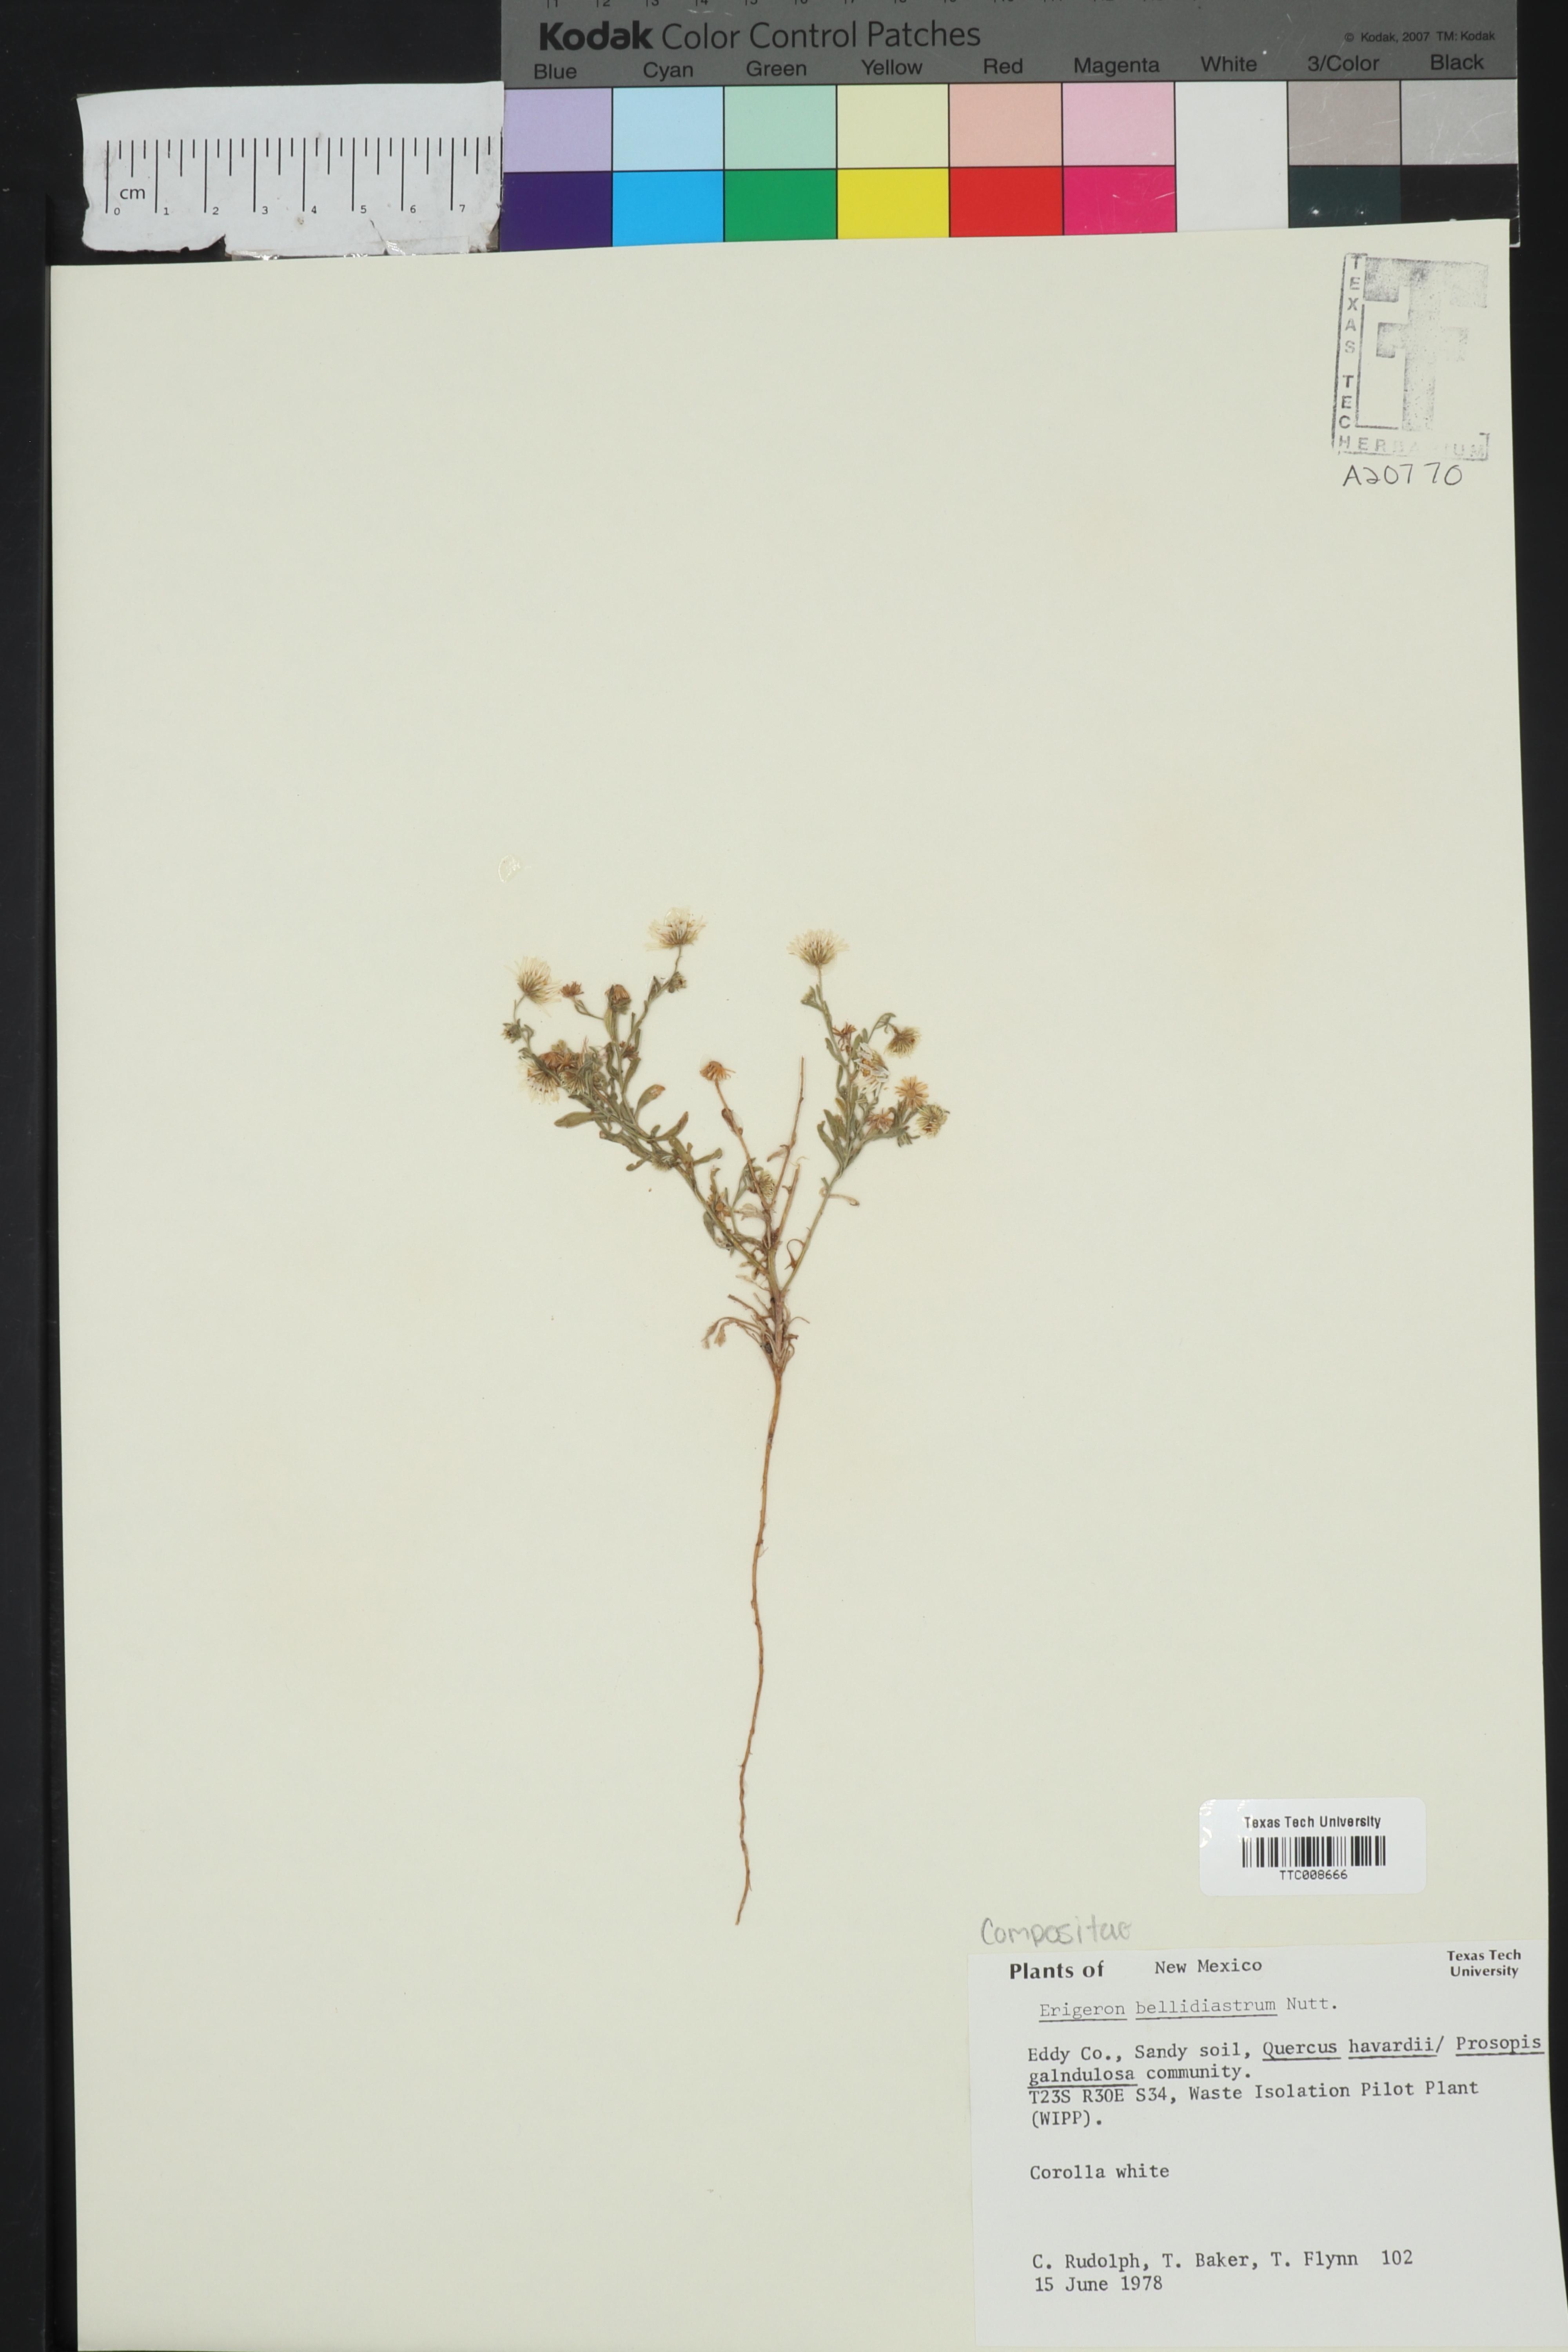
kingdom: Plantae
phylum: Tracheophyta
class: Magnoliopsida
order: Asterales
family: Asteraceae
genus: Erigeron
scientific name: Erigeron bellidiastrum
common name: Sand fleabane
